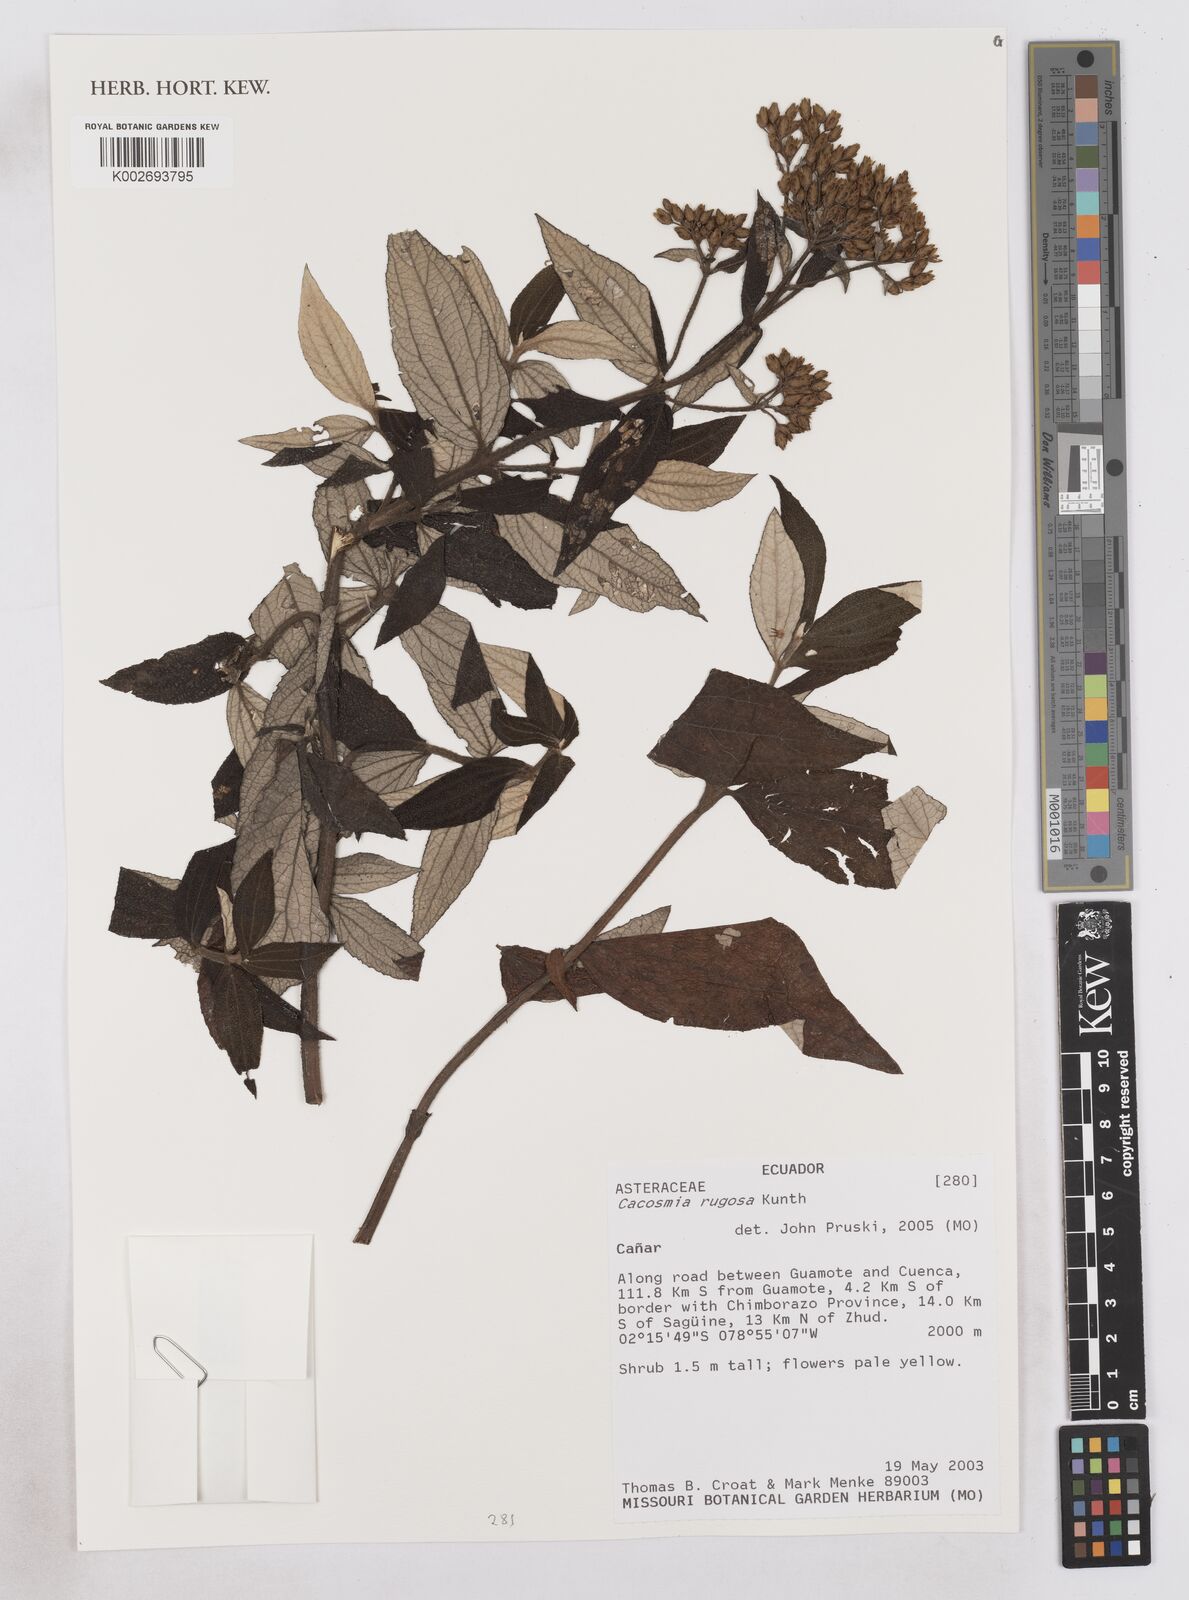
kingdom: Plantae
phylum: Tracheophyta
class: Magnoliopsida
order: Asterales
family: Asteraceae
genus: Cacosmia
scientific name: Cacosmia rugosa
